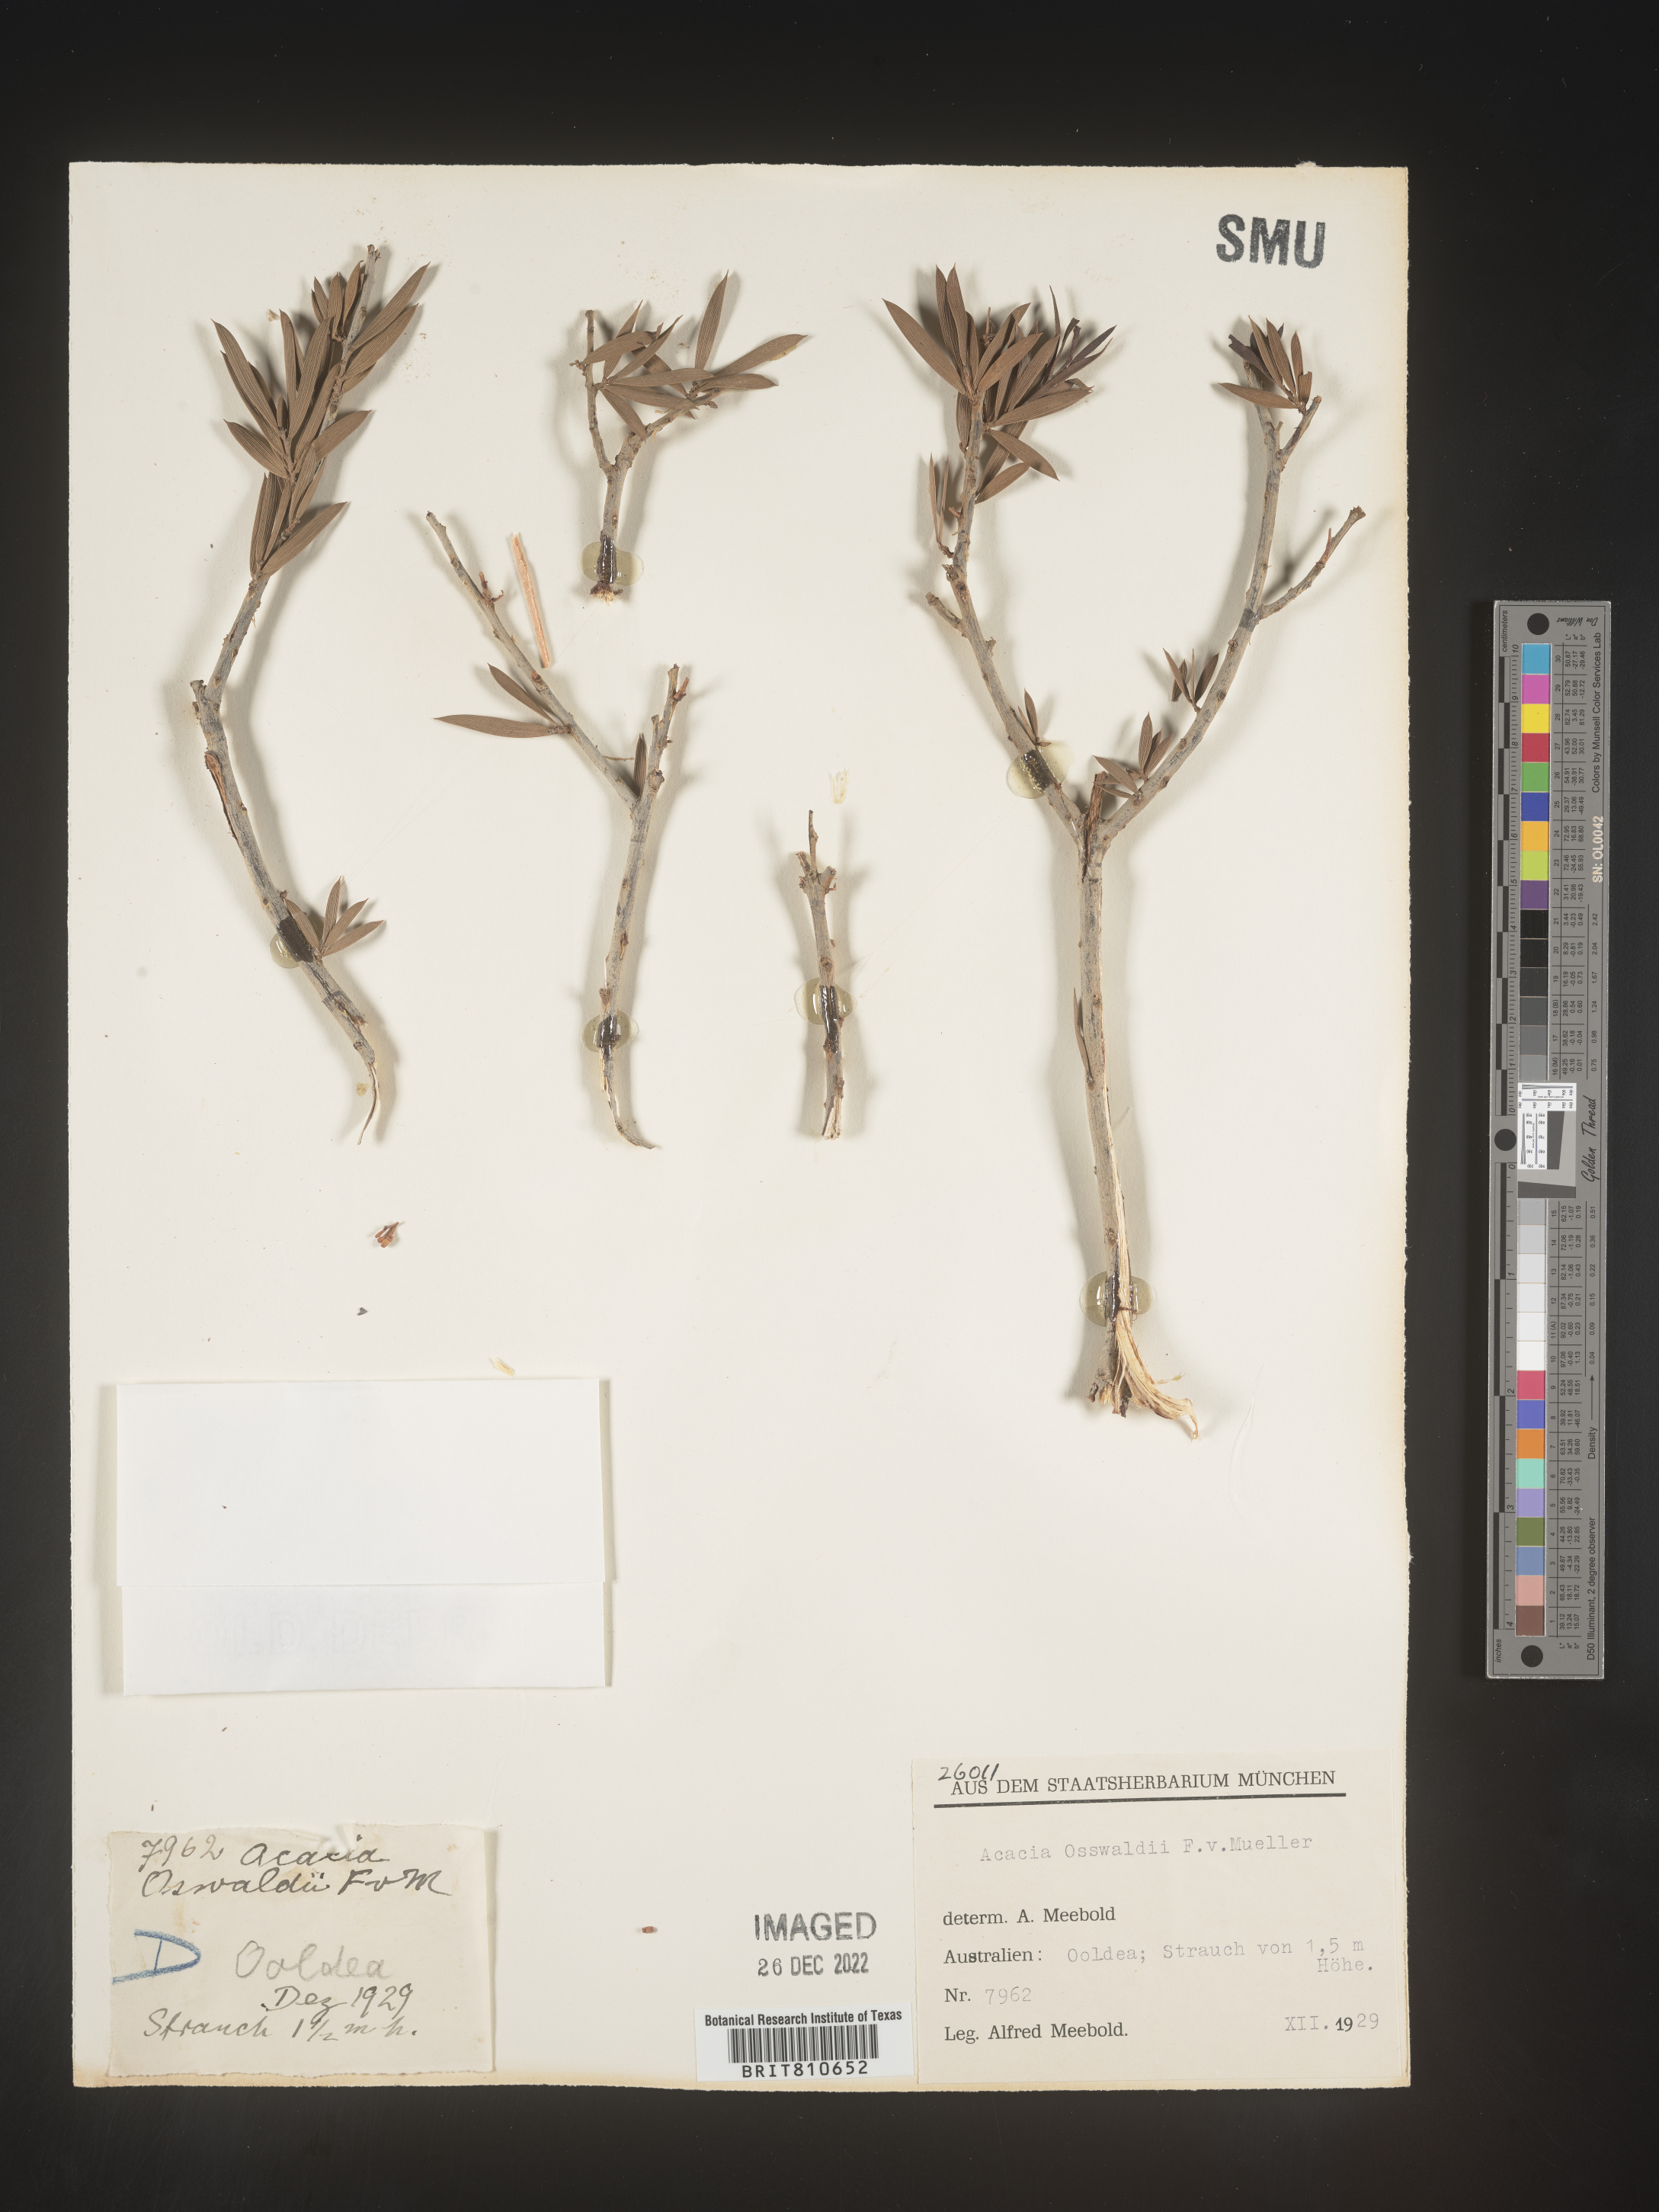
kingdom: Plantae
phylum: Tracheophyta
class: Magnoliopsida
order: Fabales
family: Fabaceae
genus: Acacia
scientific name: Acacia
